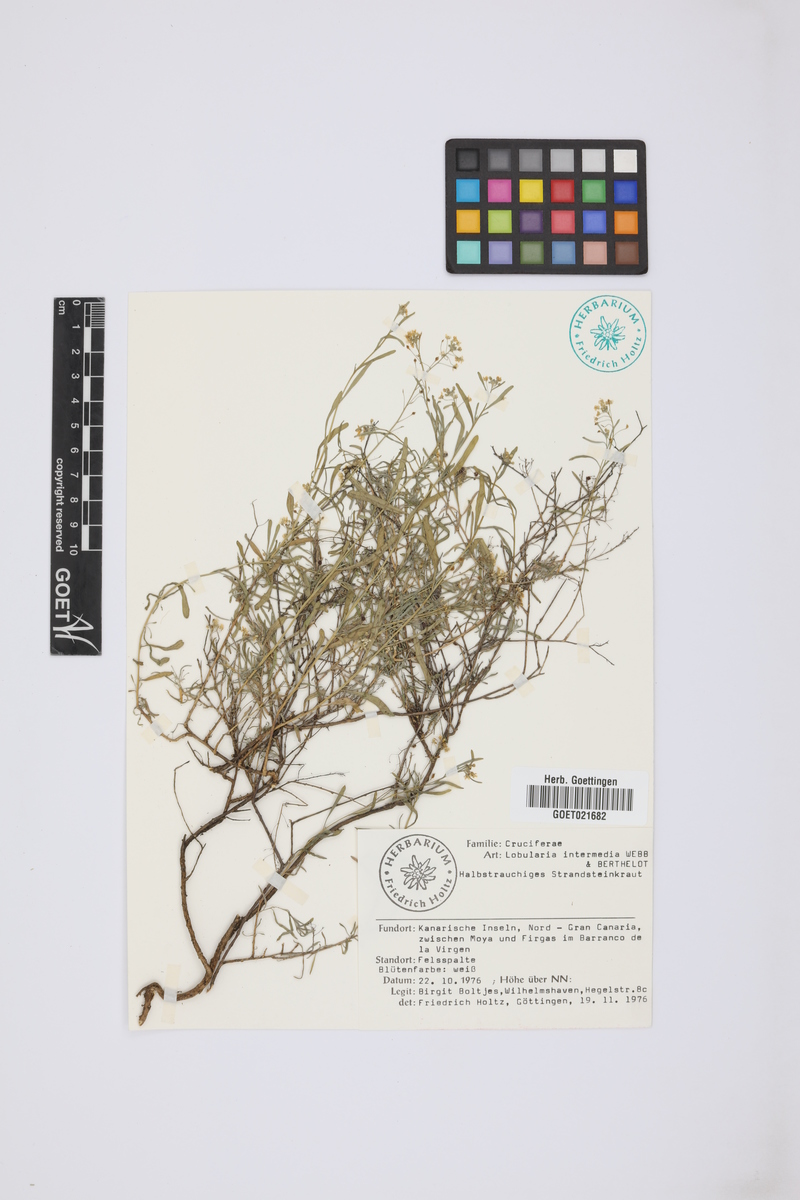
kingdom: Plantae
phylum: Tracheophyta
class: Magnoliopsida
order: Brassicales
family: Brassicaceae
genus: Lobularia
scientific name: Lobularia canariensis
